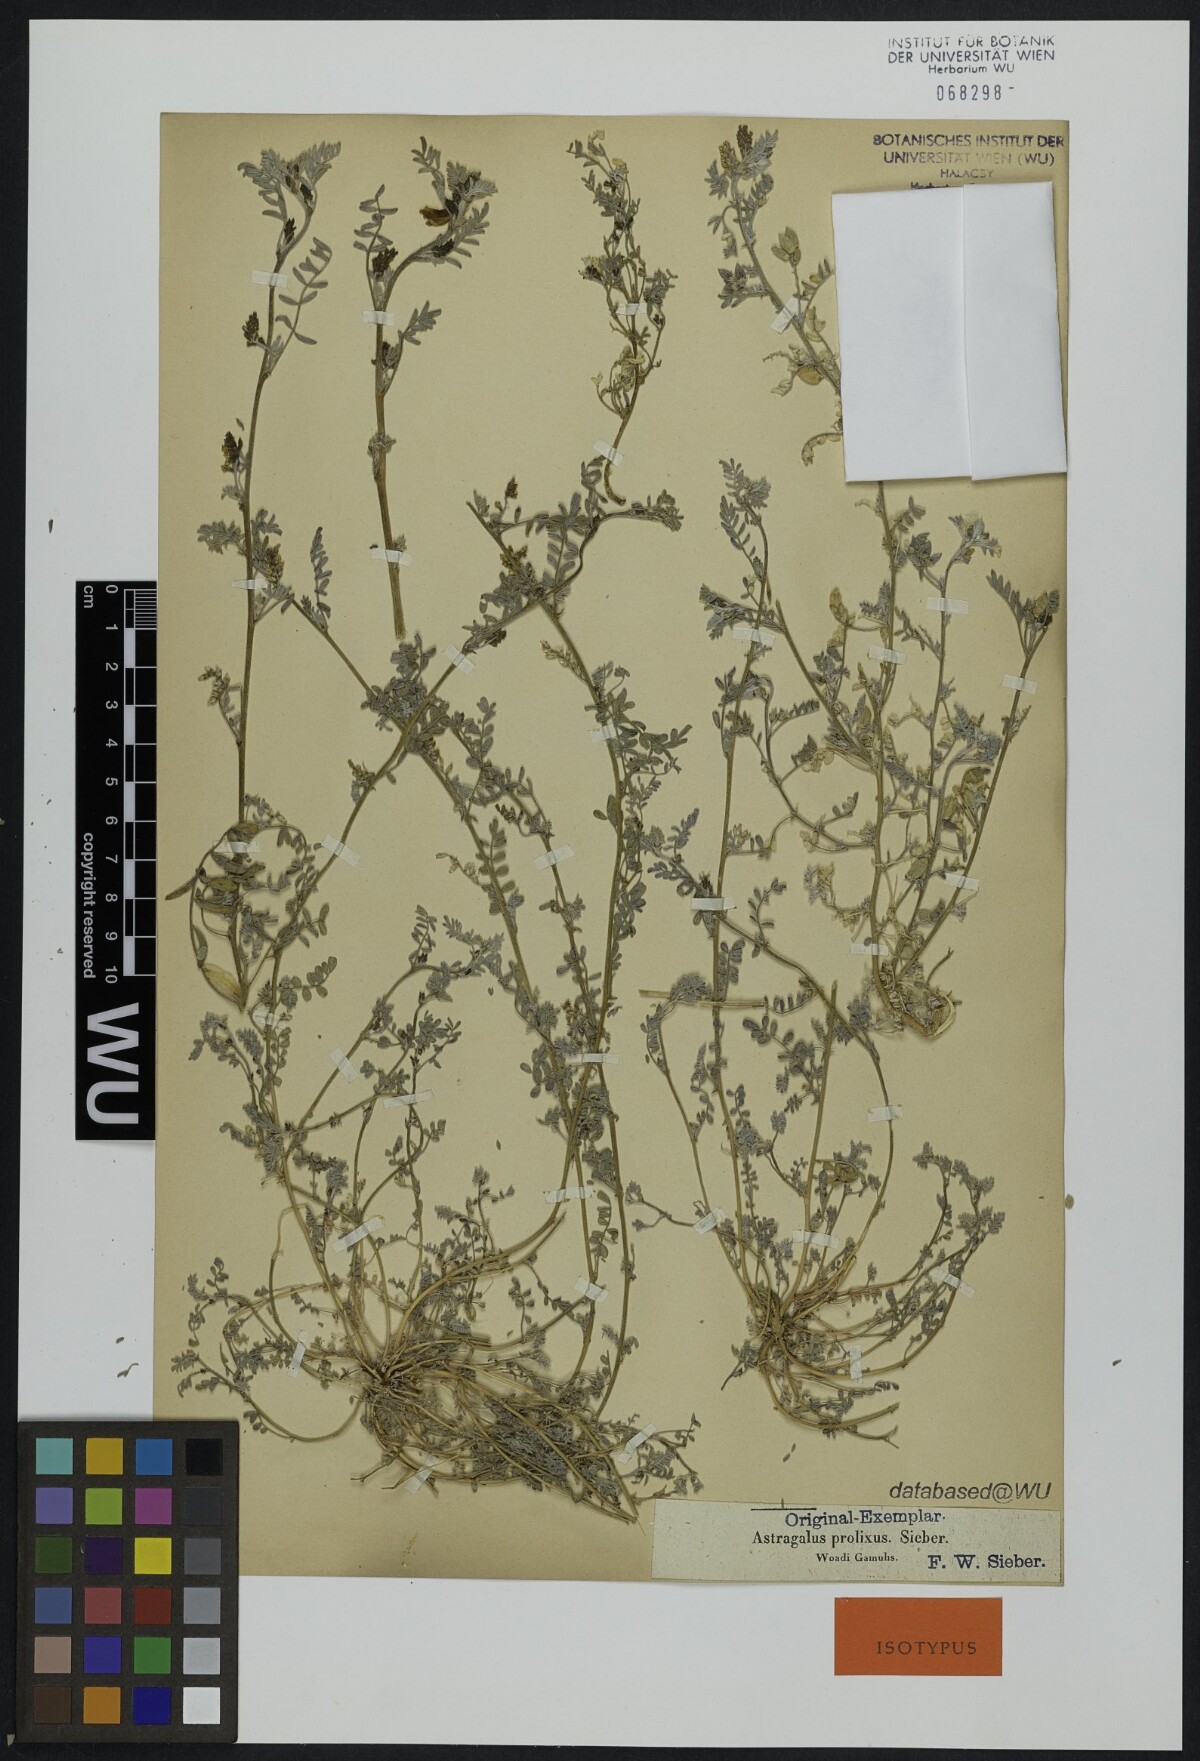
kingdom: Plantae
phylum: Tracheophyta
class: Magnoliopsida
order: Fabales
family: Fabaceae
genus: Astragalus
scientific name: Astragalus vogelii
